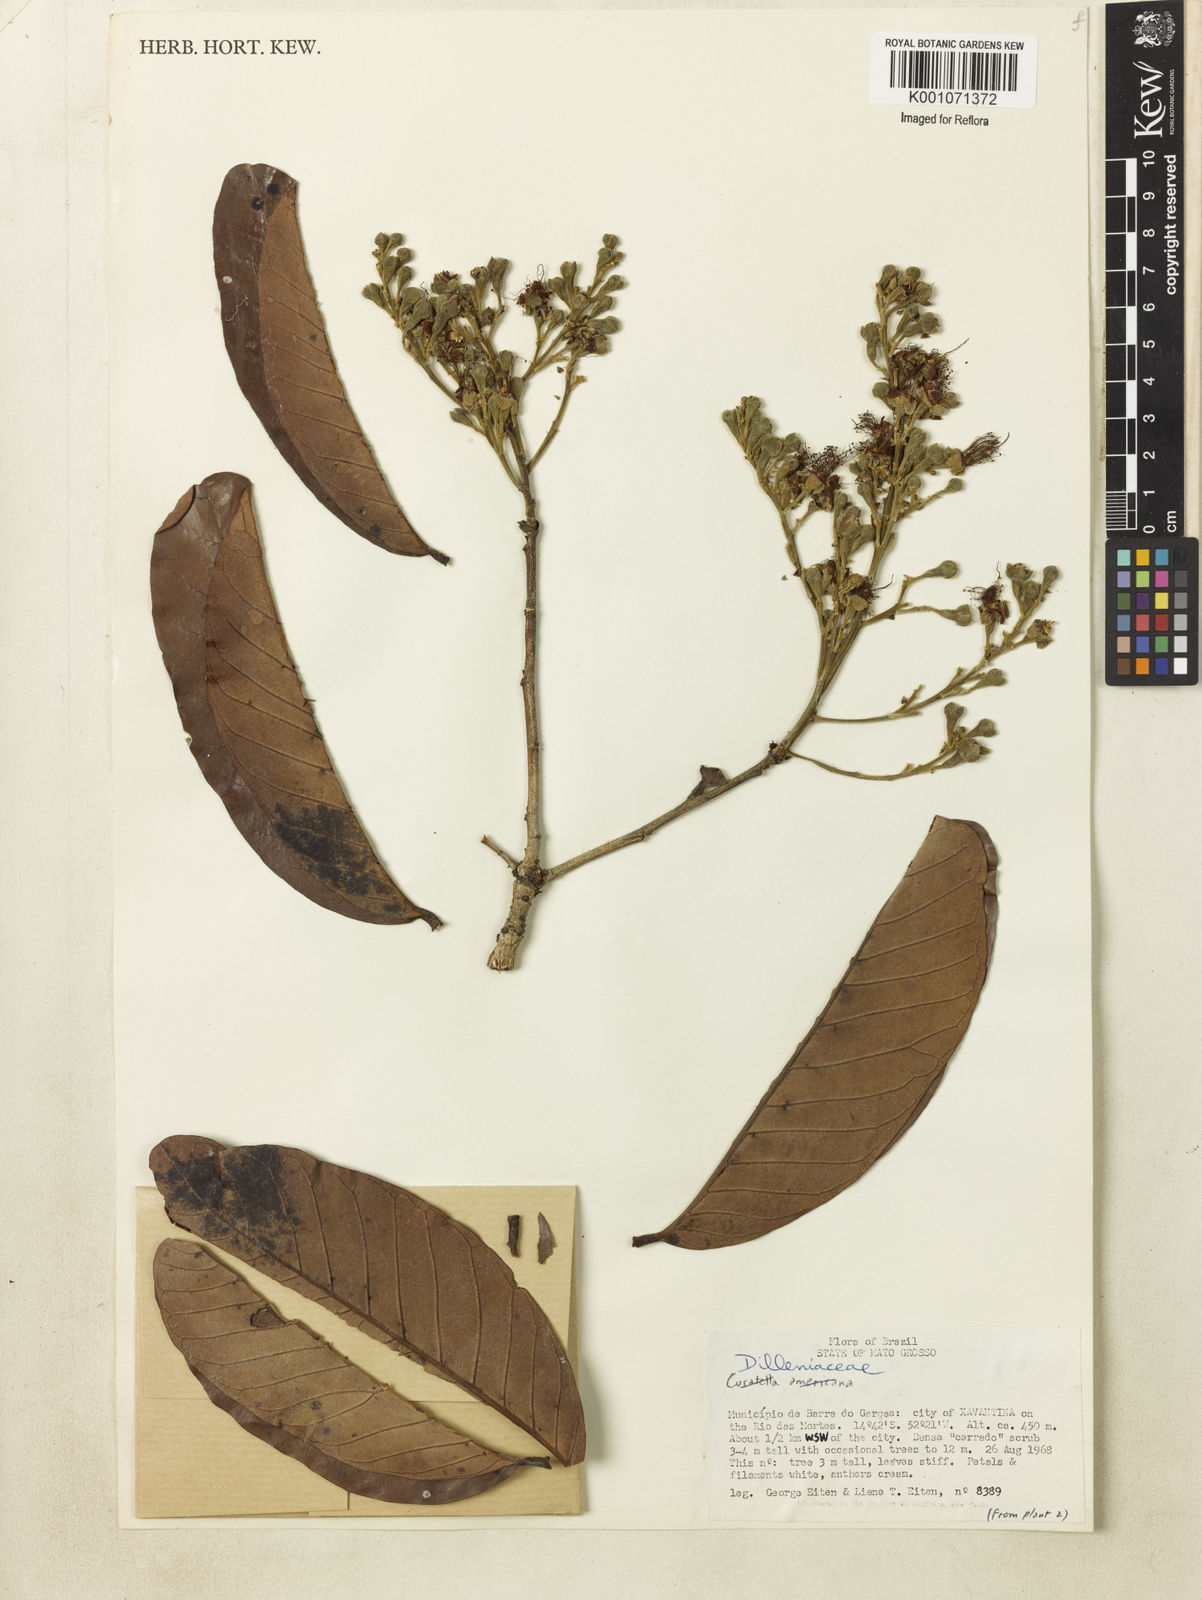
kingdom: Plantae
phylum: Tracheophyta
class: Magnoliopsida
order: Dilleniales
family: Dilleniaceae
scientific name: Dilleniaceae
